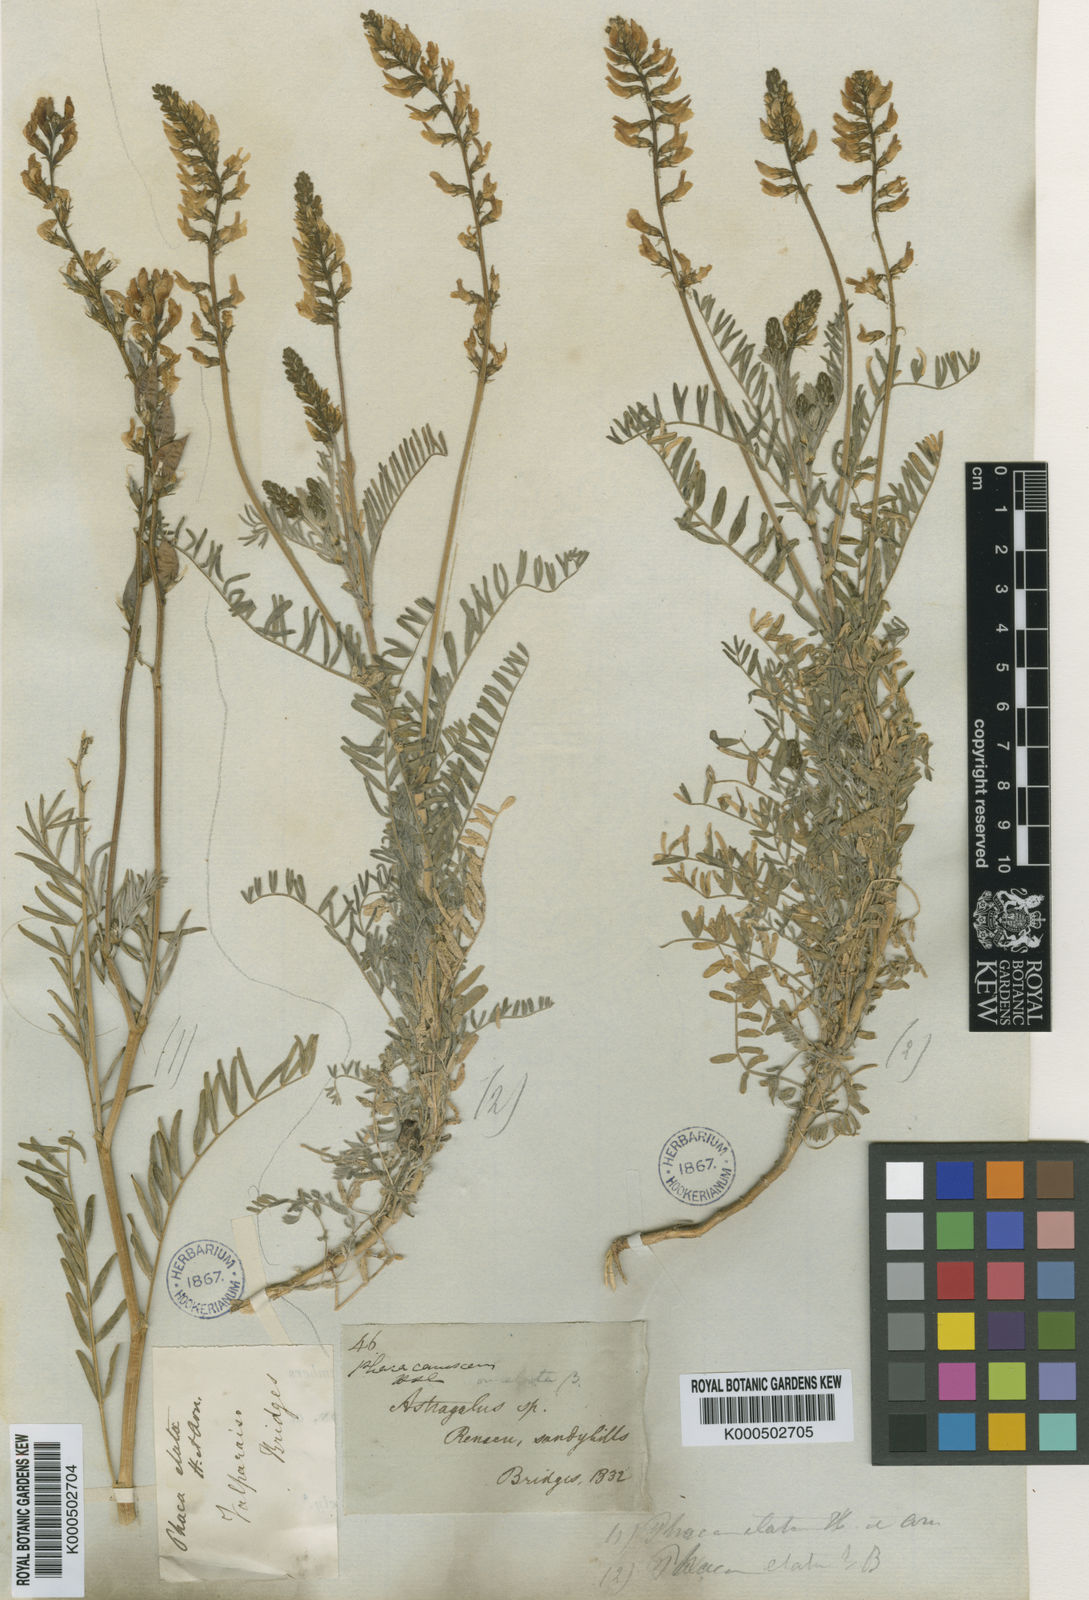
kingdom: Plantae
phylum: Tracheophyta
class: Magnoliopsida
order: Fabales
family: Fabaceae
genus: Astragalus
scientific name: Astragalus berteroanus
